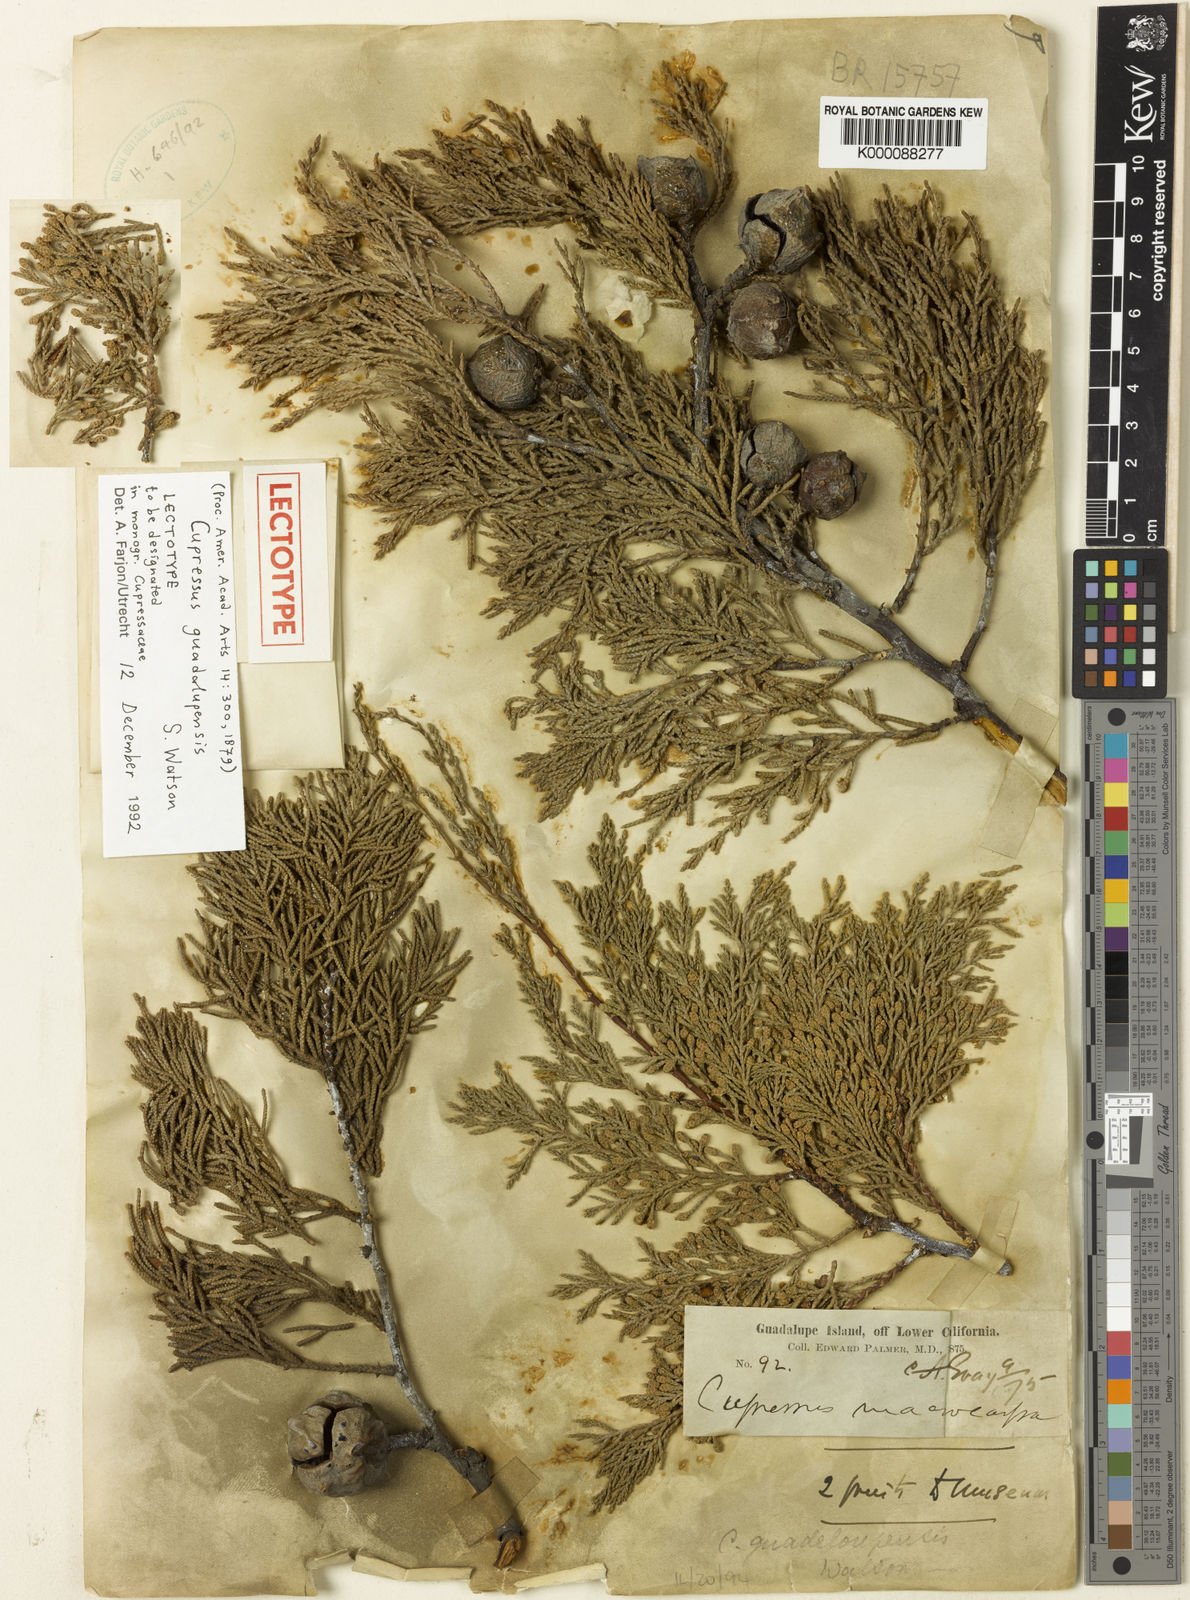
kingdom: Plantae
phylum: Tracheophyta
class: Pinopsida
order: Pinales
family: Cupressaceae
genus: Cupressus
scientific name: Cupressus guadalupensis
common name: Forbes cypress
